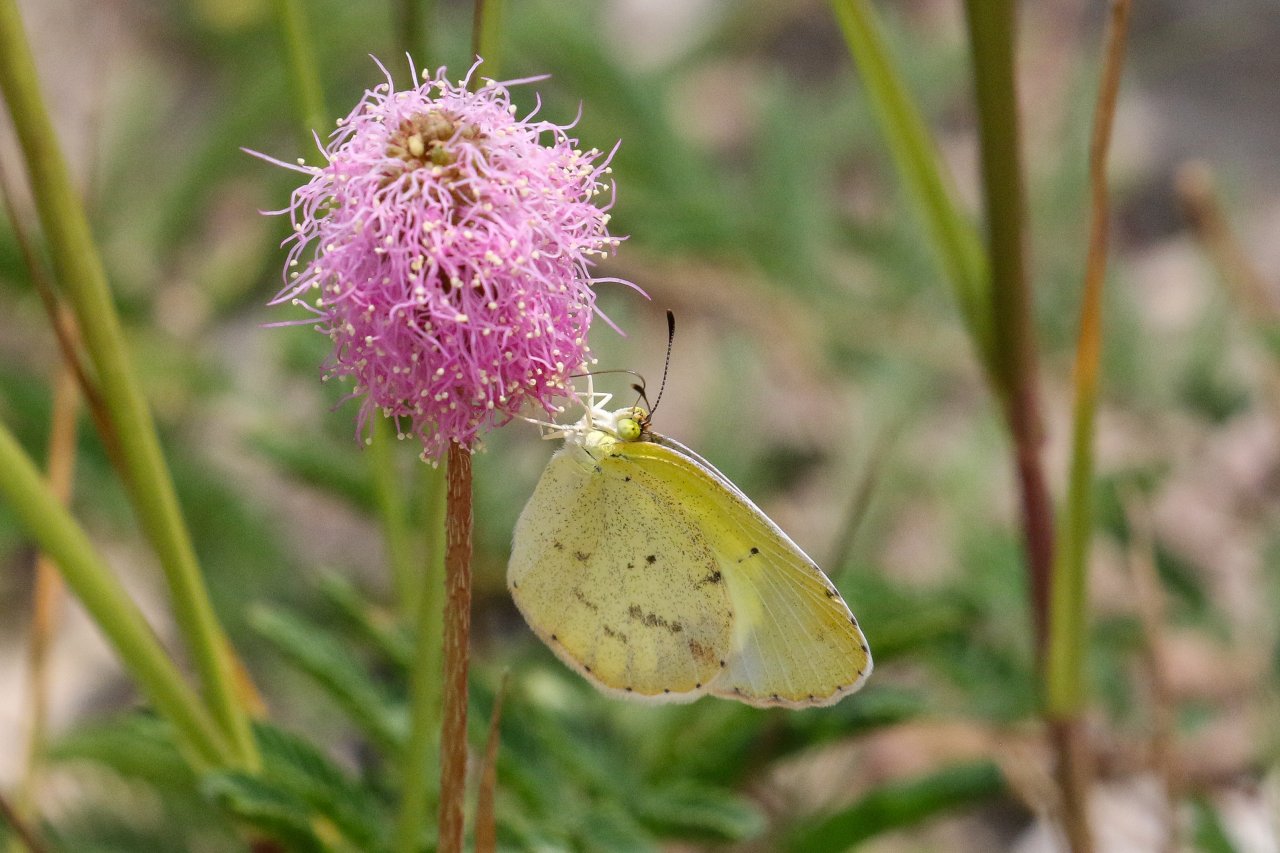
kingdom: Animalia
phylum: Arthropoda
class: Insecta
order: Lepidoptera
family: Pieridae
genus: Pyrisitia
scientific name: Pyrisitia lisa
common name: Little Yellow
